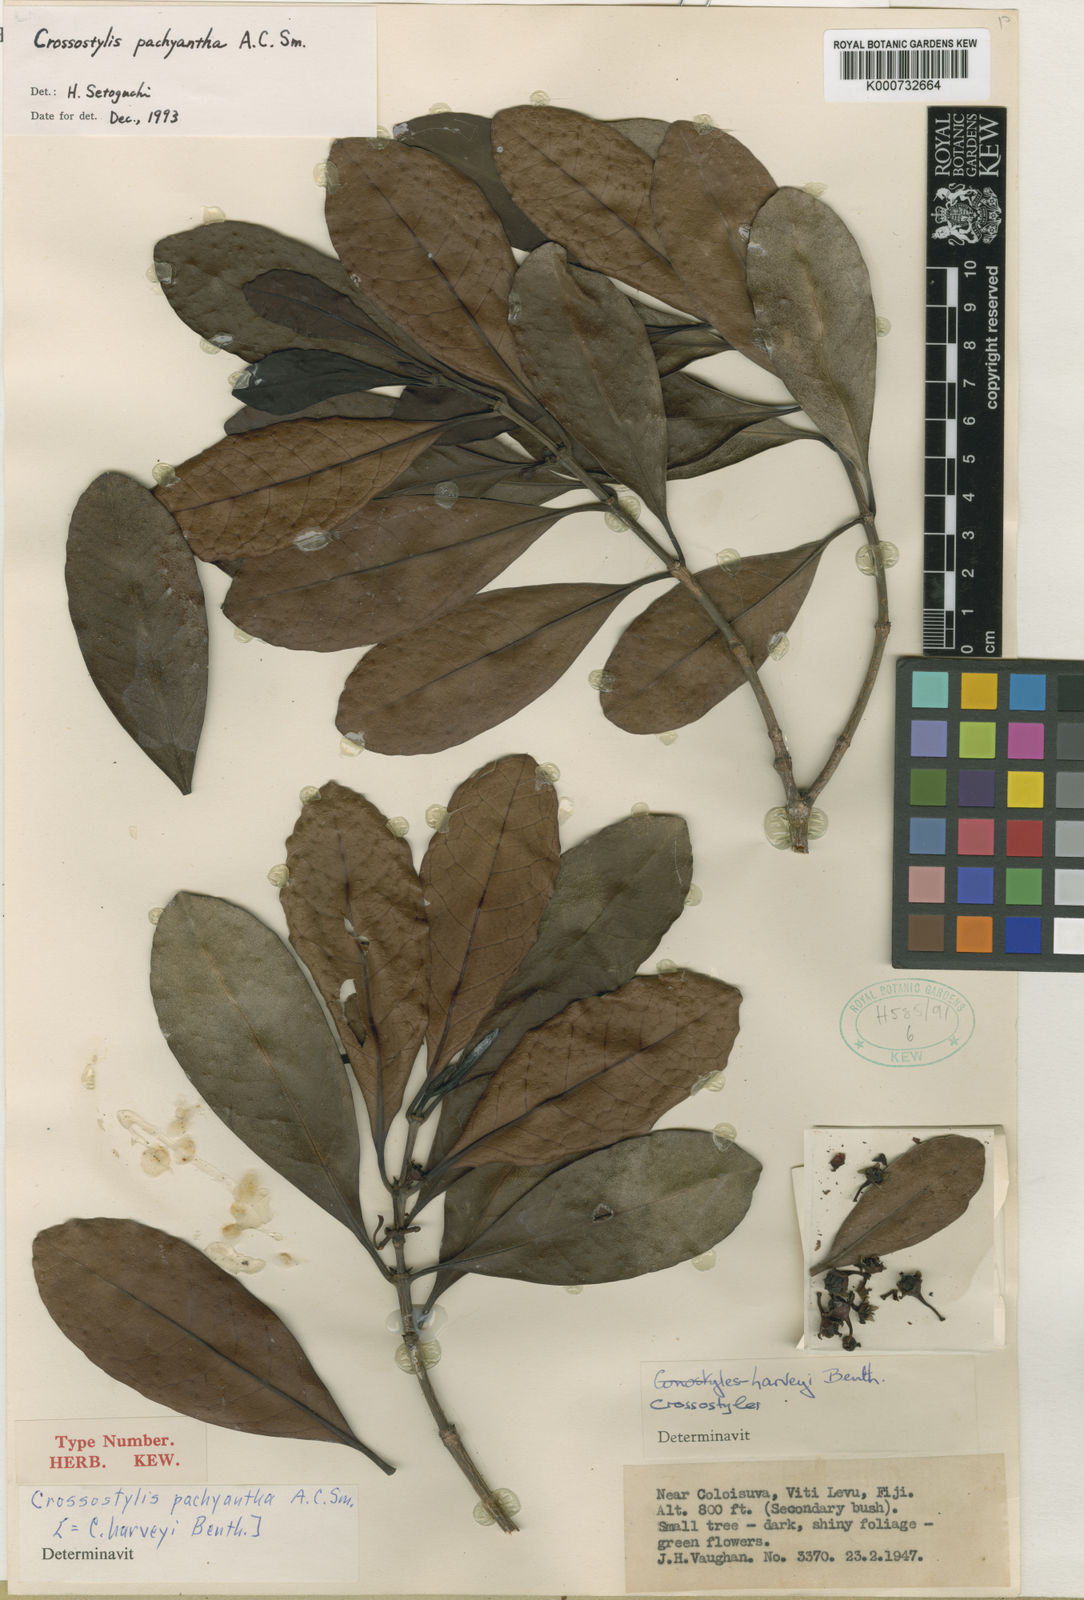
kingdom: Plantae
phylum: Tracheophyta
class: Magnoliopsida
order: Malpighiales
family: Rhizophoraceae
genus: Crossostylis
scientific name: Crossostylis harveyi
